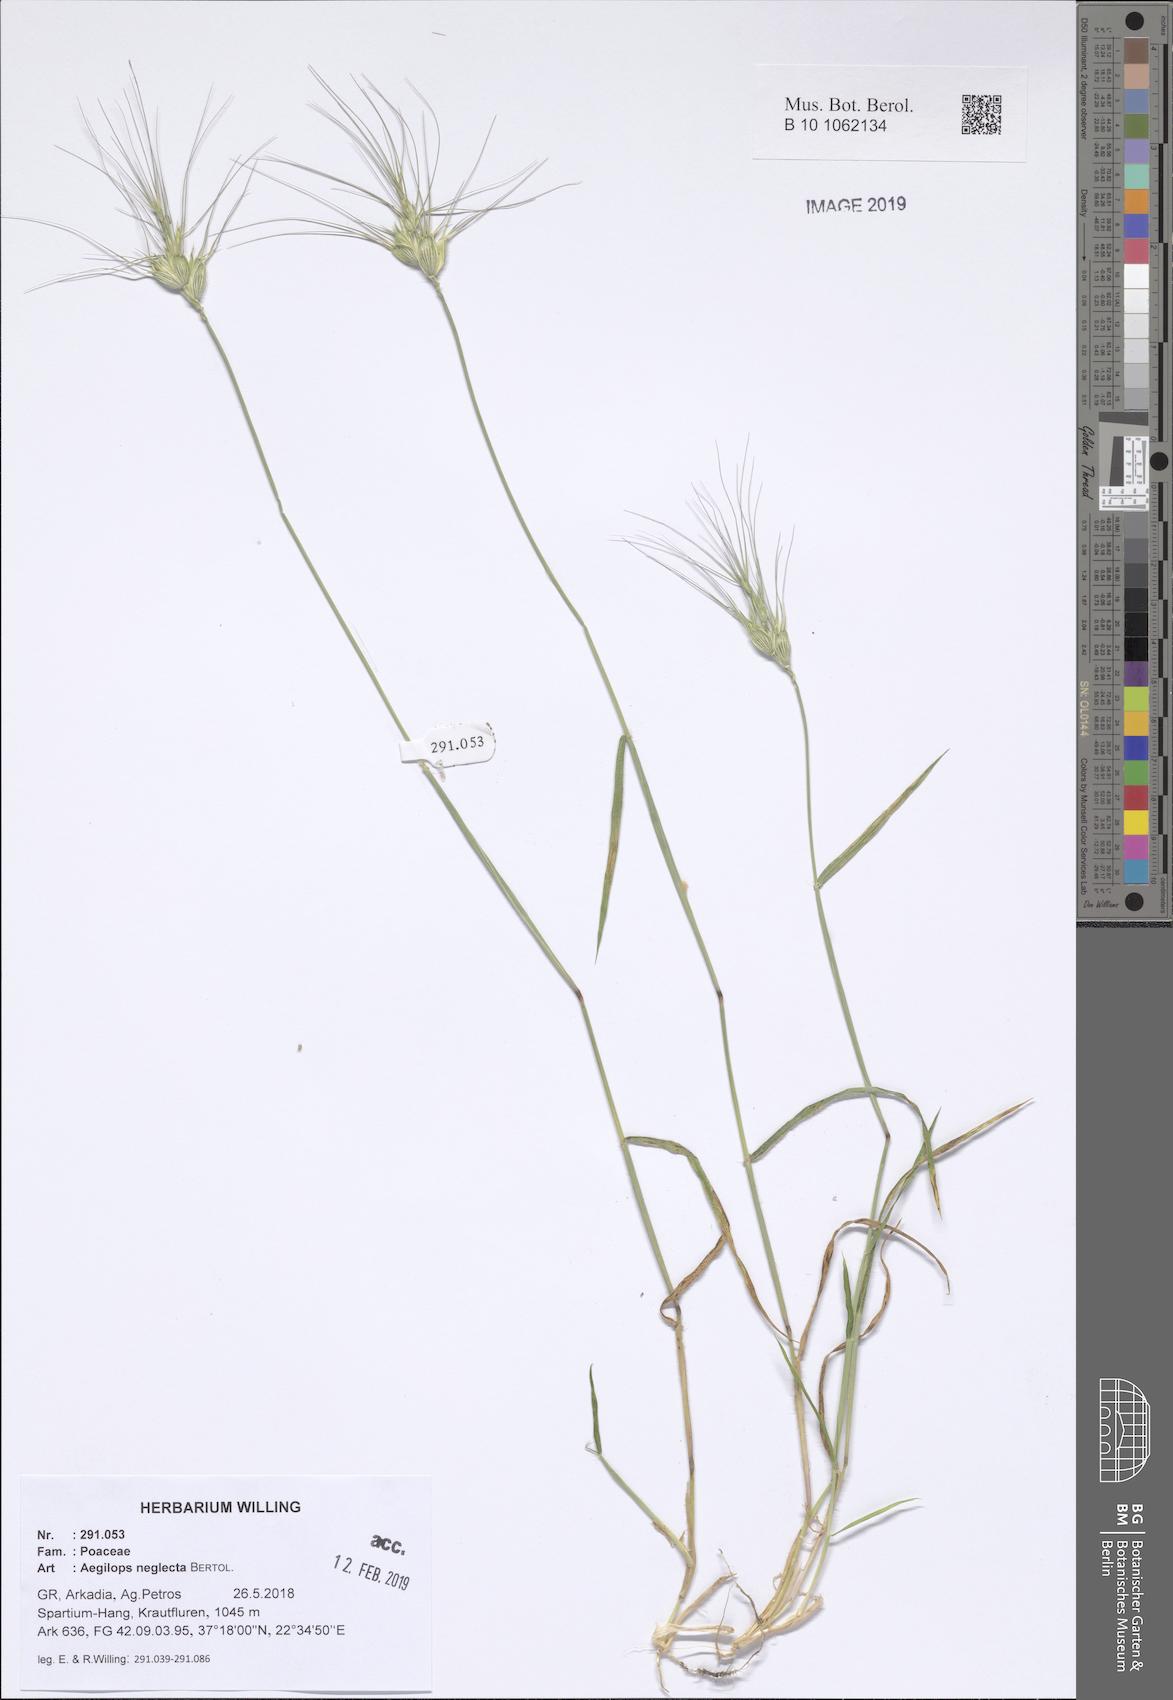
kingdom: Plantae
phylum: Tracheophyta
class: Liliopsida
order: Poales
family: Poaceae
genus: Aegilops
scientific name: Aegilops neglecta
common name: Three-awn goat grass
